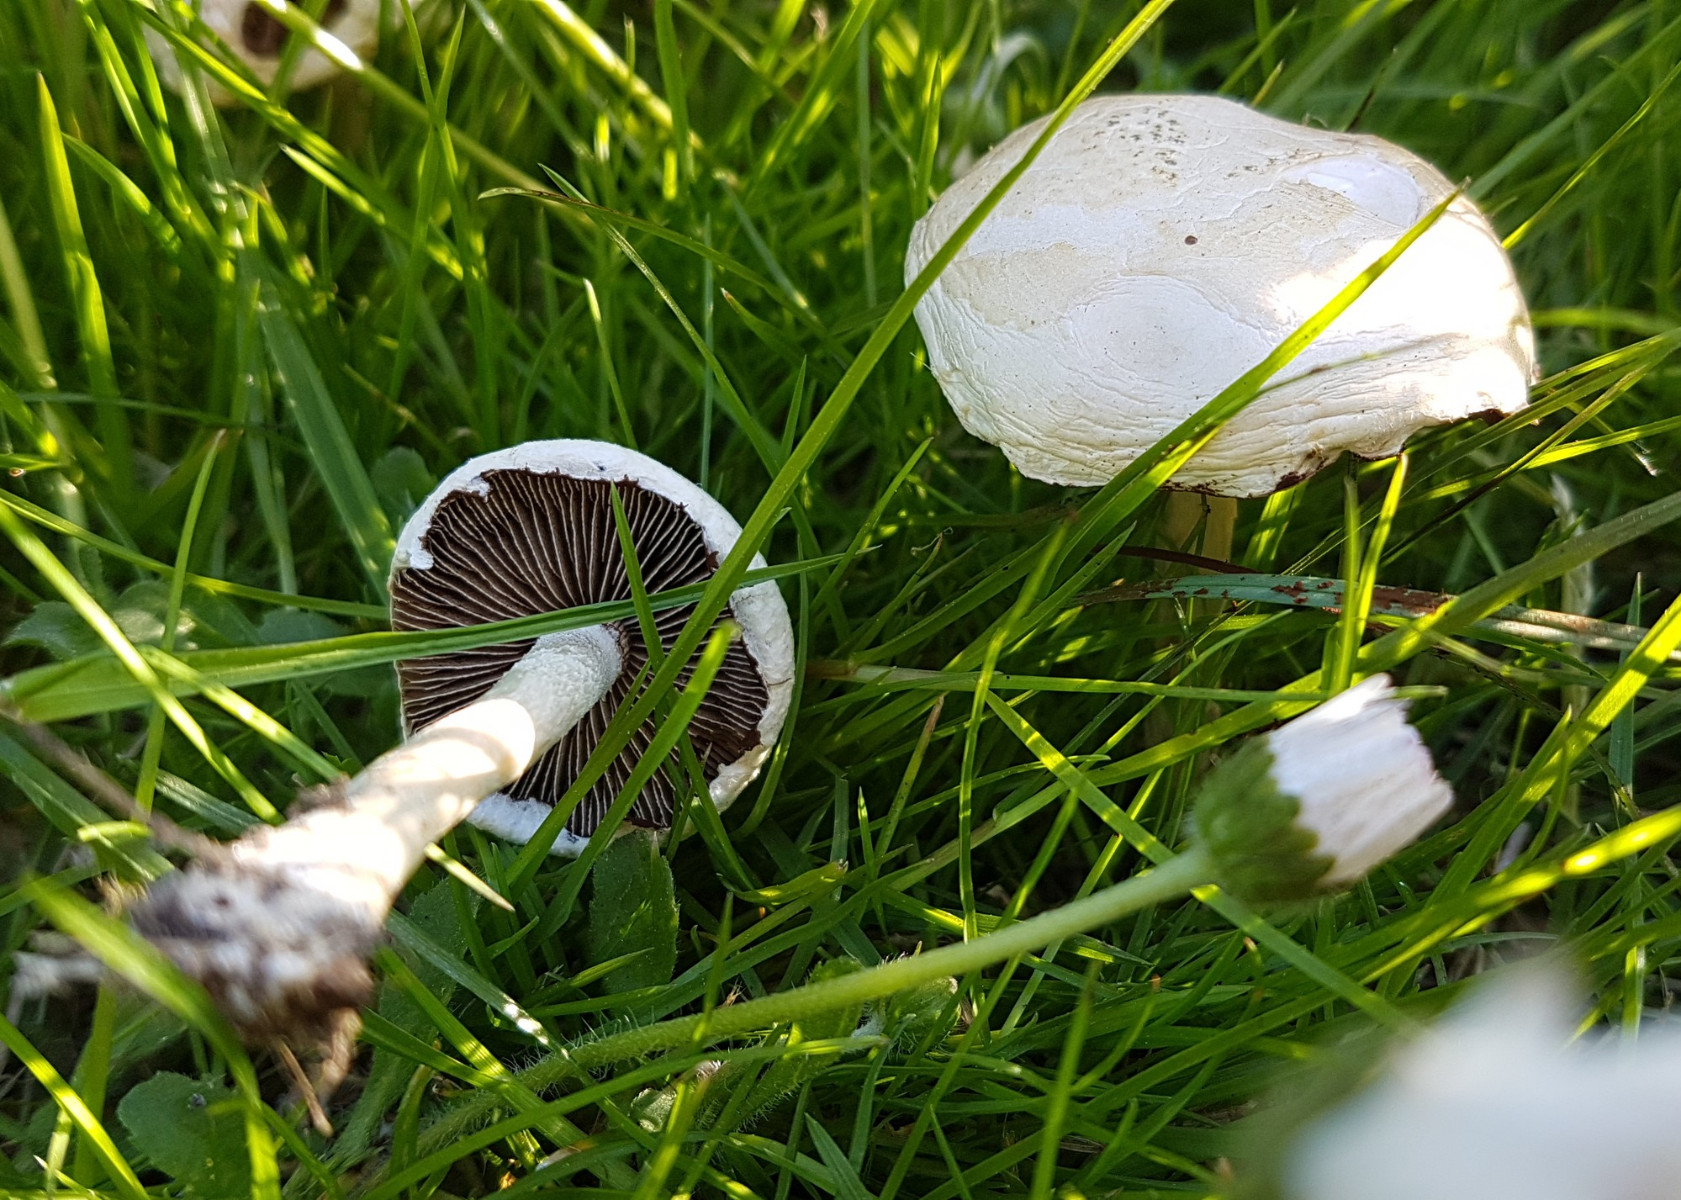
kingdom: Fungi
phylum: Basidiomycota
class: Agaricomycetes
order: Agaricales
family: Strophariaceae
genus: Agrocybe
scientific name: Agrocybe dura
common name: fastkødet agerhat
